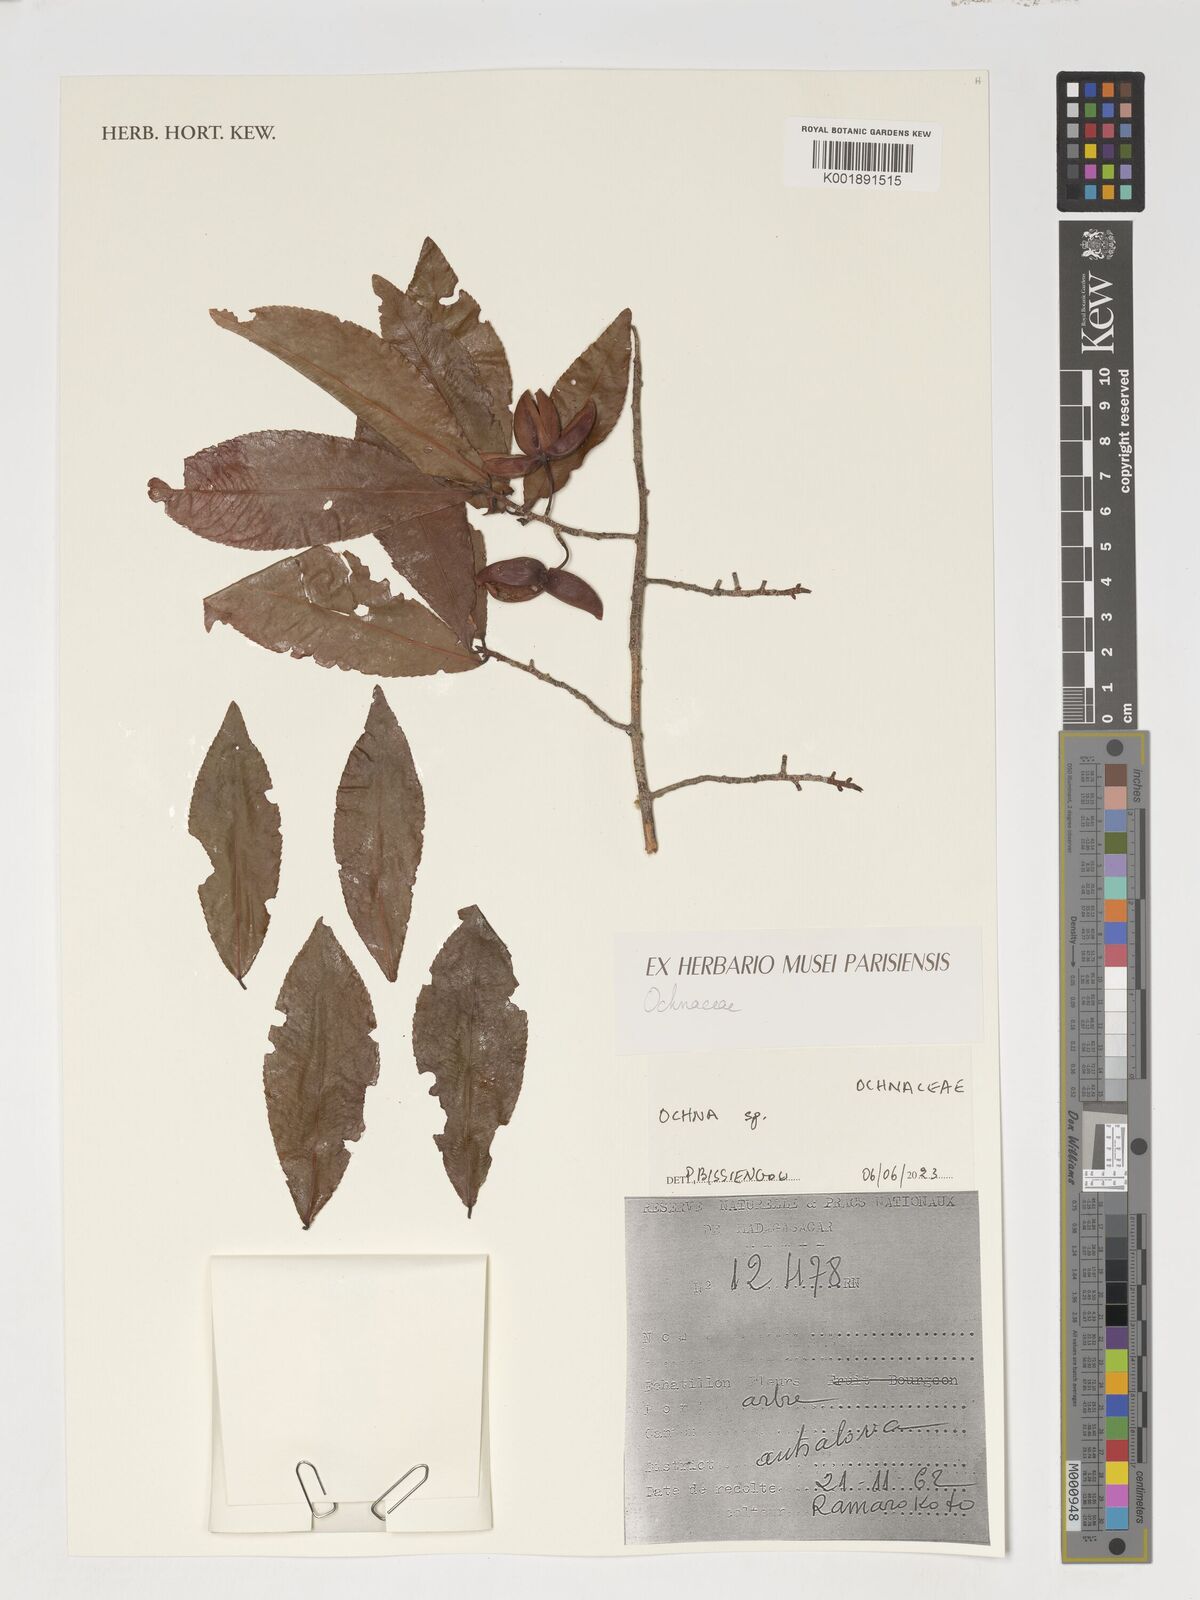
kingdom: Plantae
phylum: Tracheophyta
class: Magnoliopsida
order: Malpighiales
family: Ochnaceae
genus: Ochna
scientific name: Ochna
